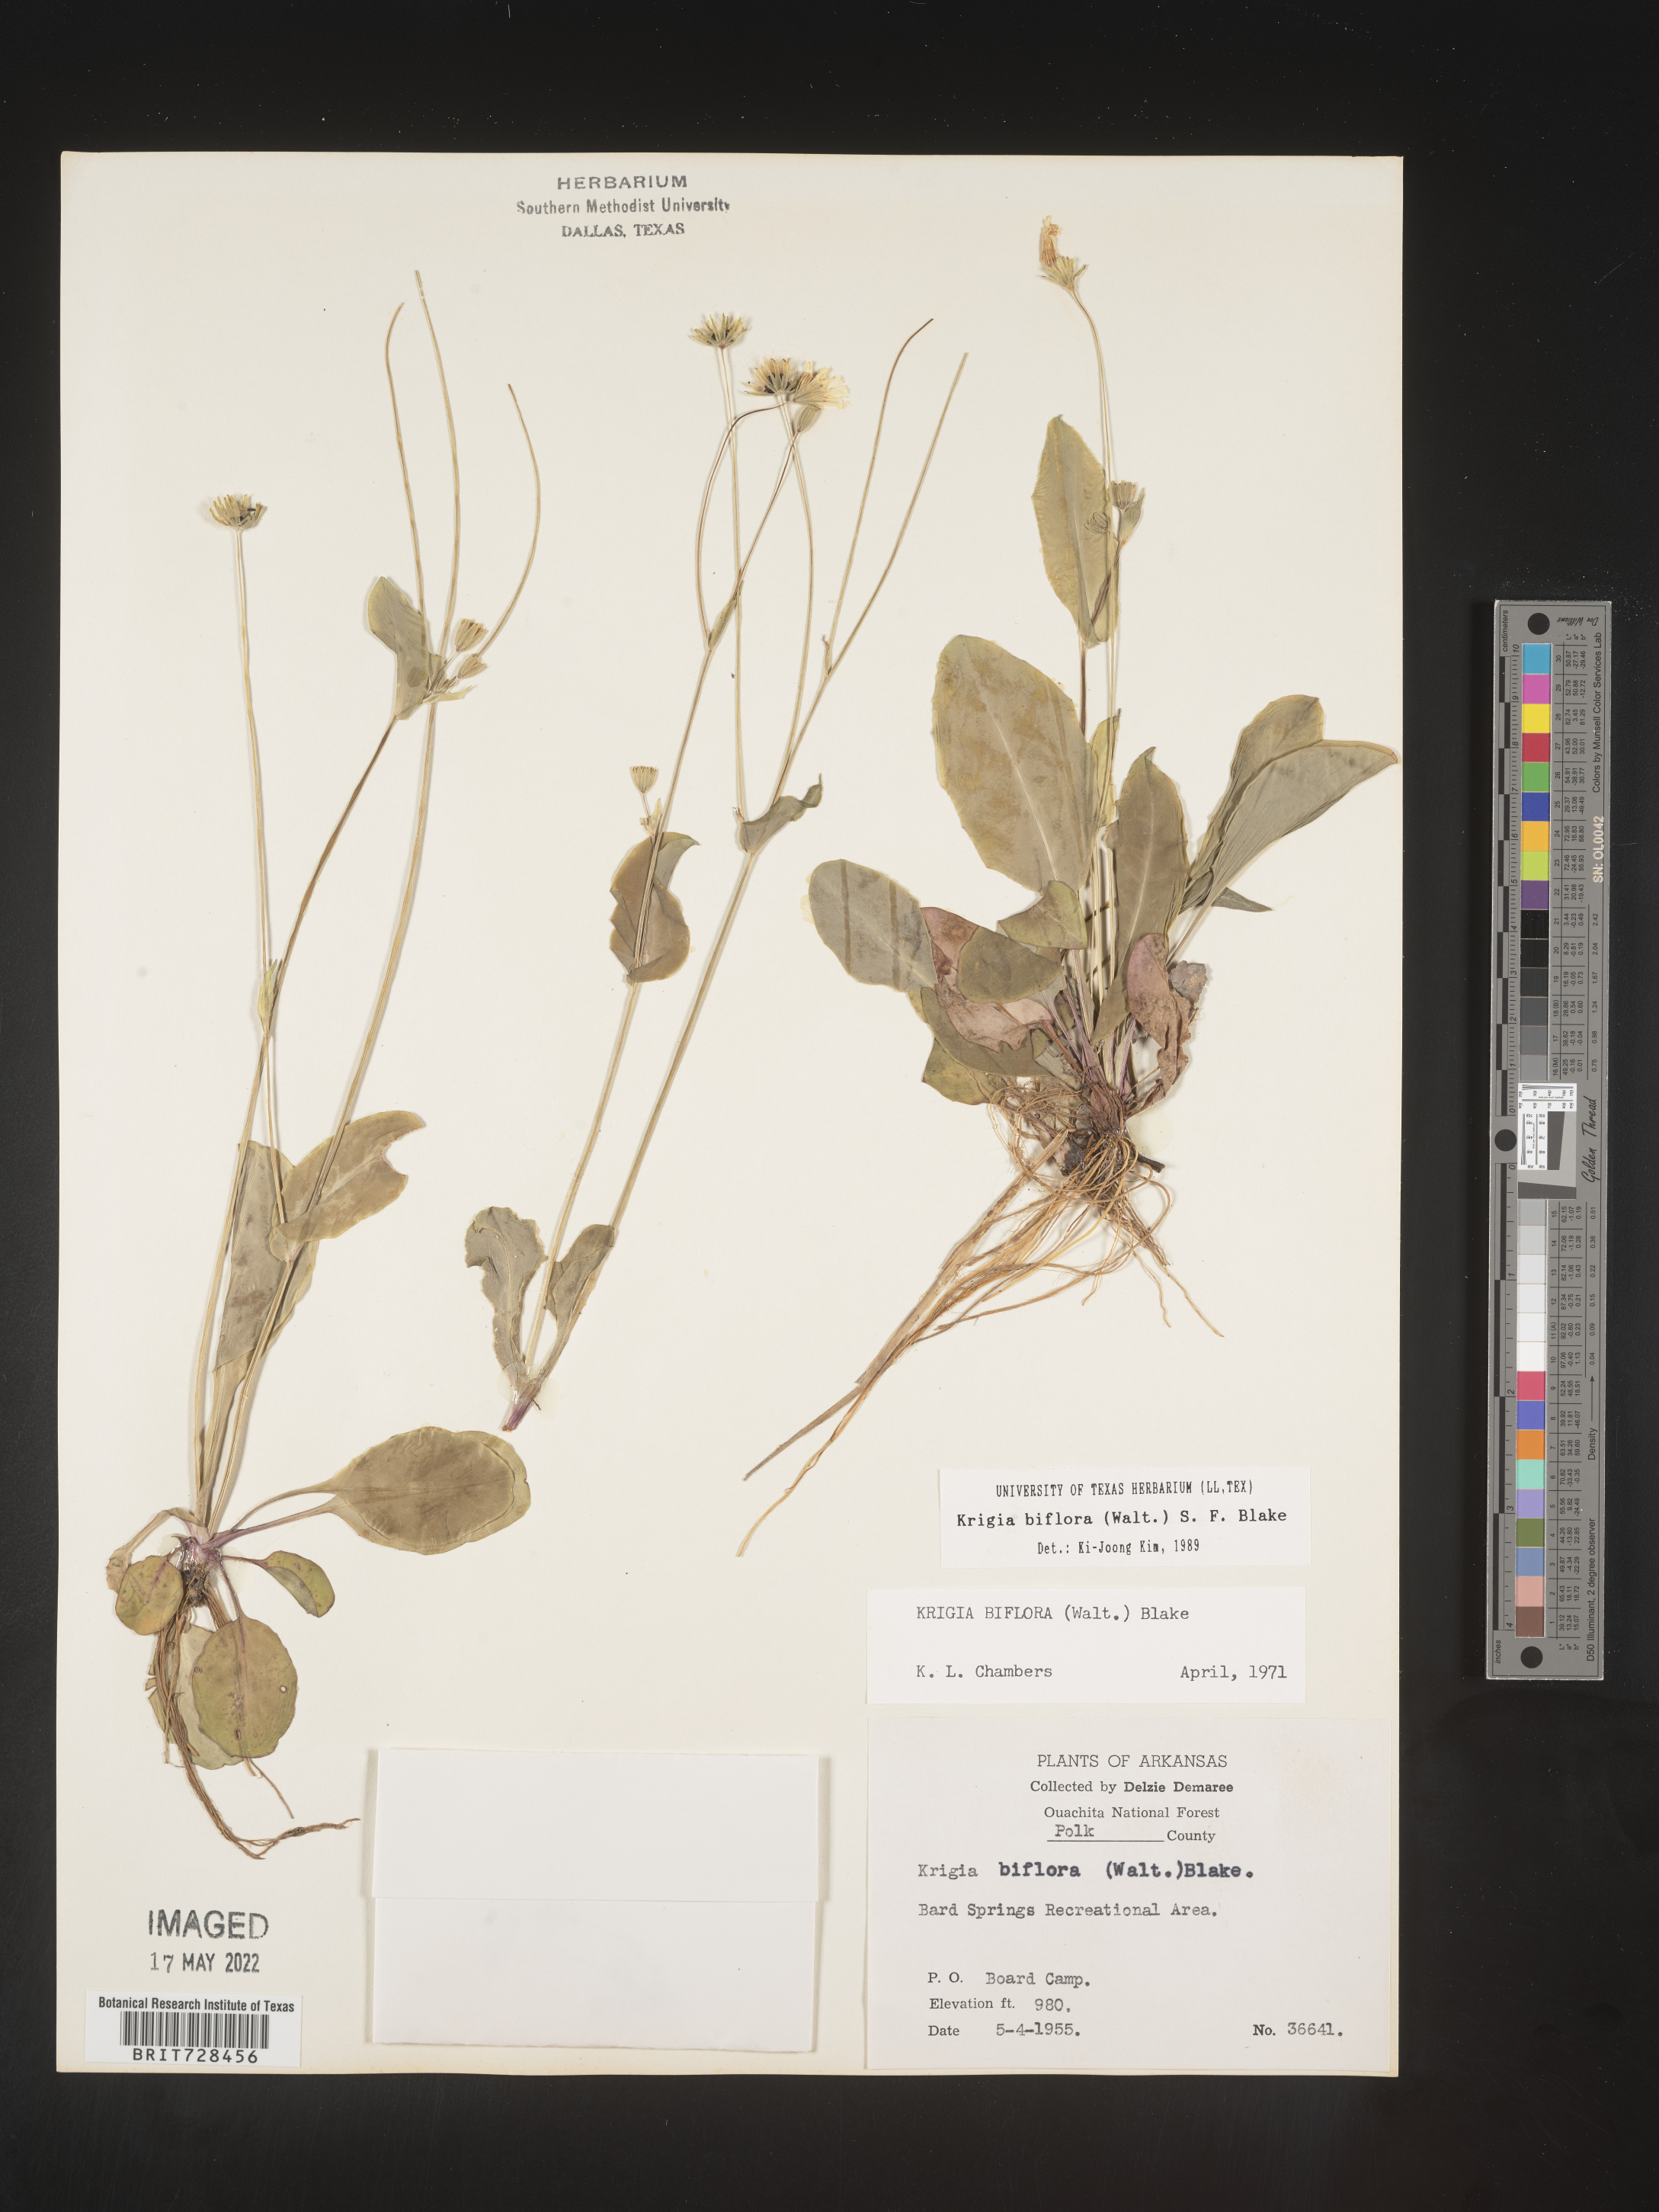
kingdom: Plantae
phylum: Tracheophyta
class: Magnoliopsida
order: Asterales
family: Asteraceae
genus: Krigia
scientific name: Krigia biflora
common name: Orange dwarf-dandelion
